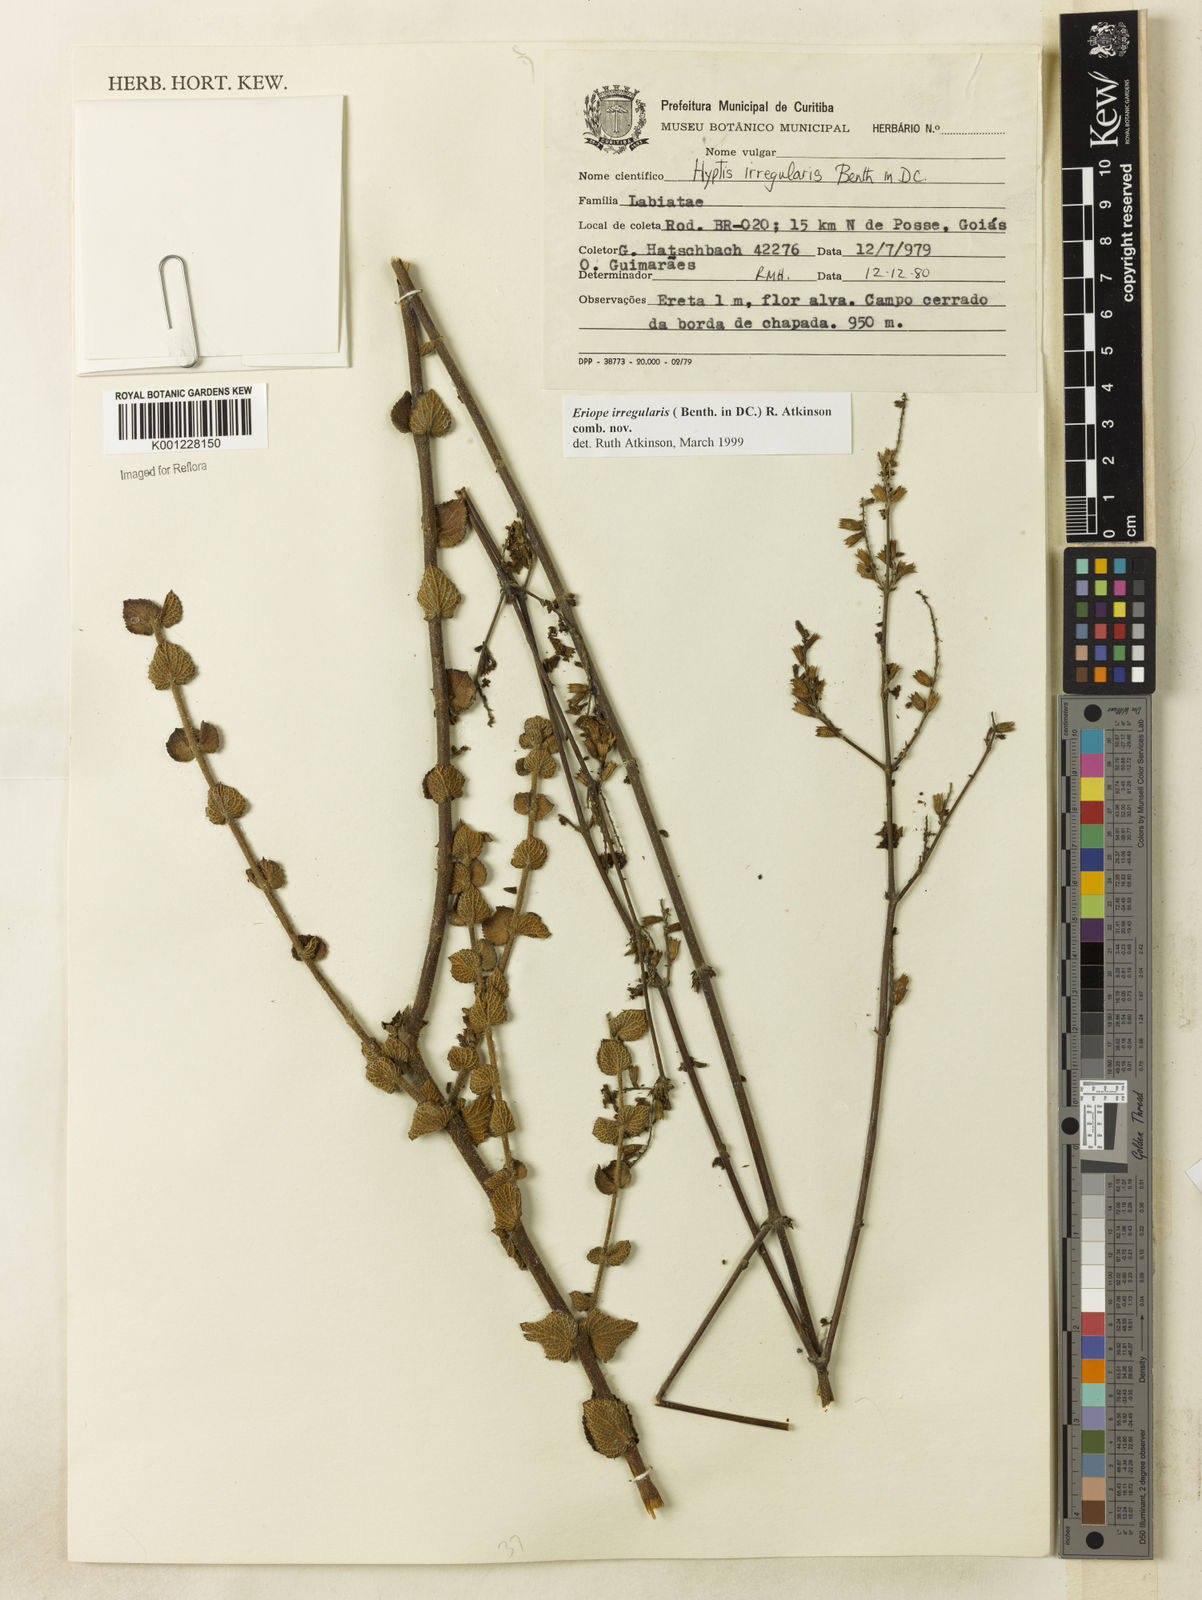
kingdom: Plantae
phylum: Tracheophyta
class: Magnoliopsida
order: Lamiales
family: Lamiaceae
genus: Hypenia
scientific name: Hypenia irregularis
